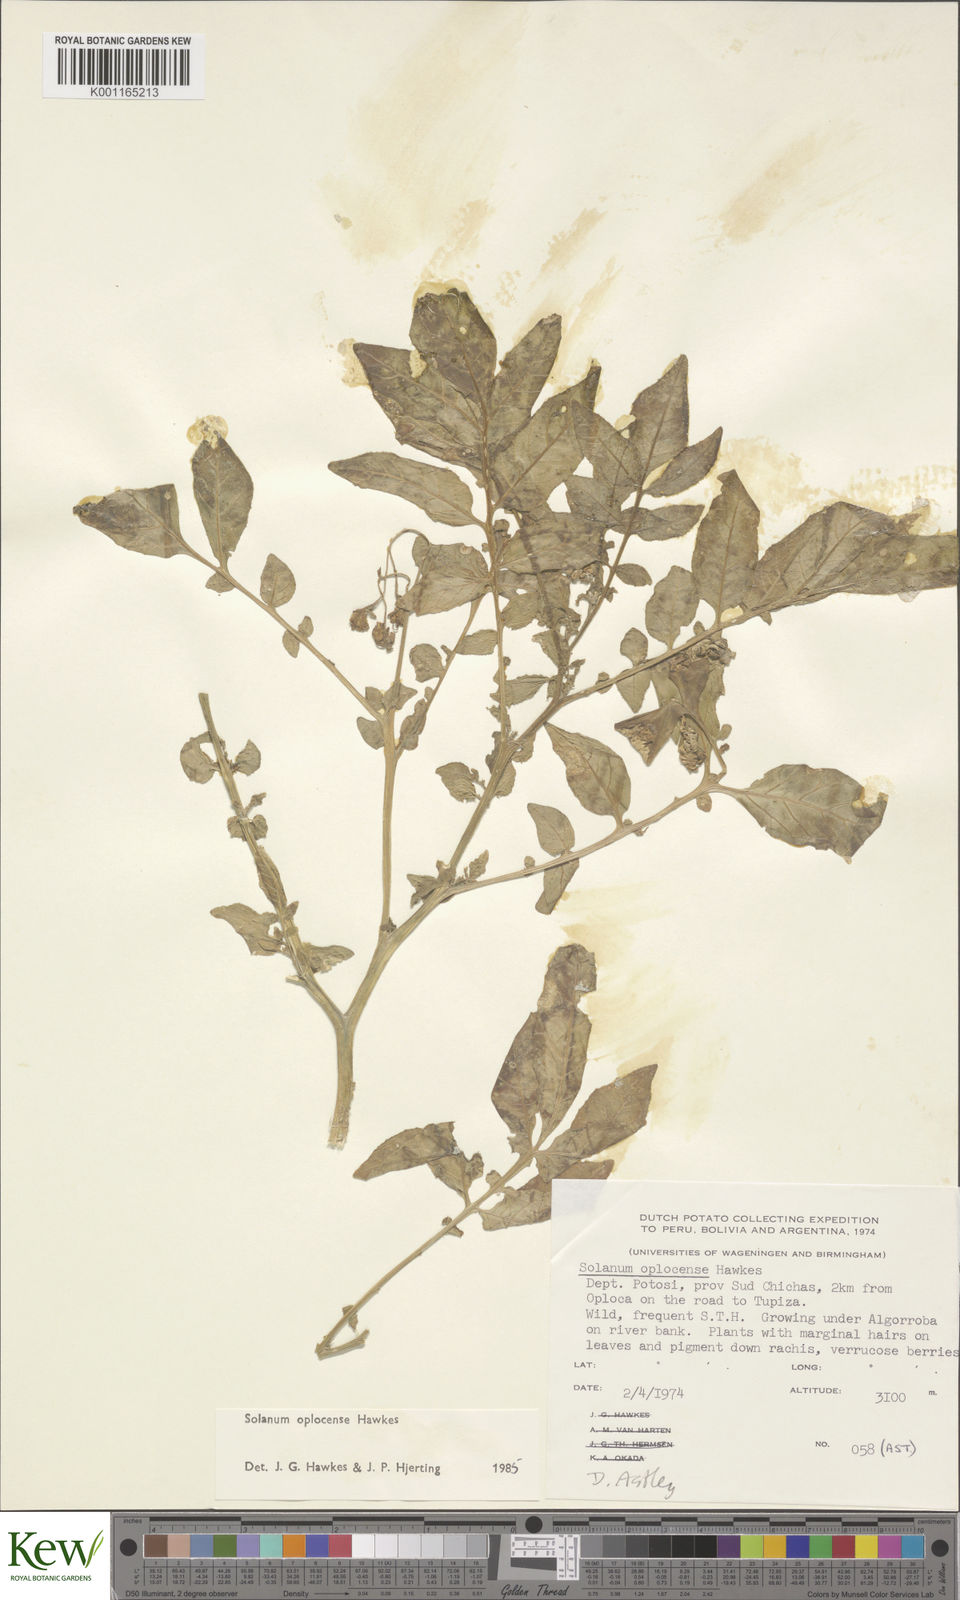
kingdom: Plantae
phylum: Tracheophyta
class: Magnoliopsida
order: Solanales
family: Solanaceae
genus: Solanum
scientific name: Solanum brevicaule
